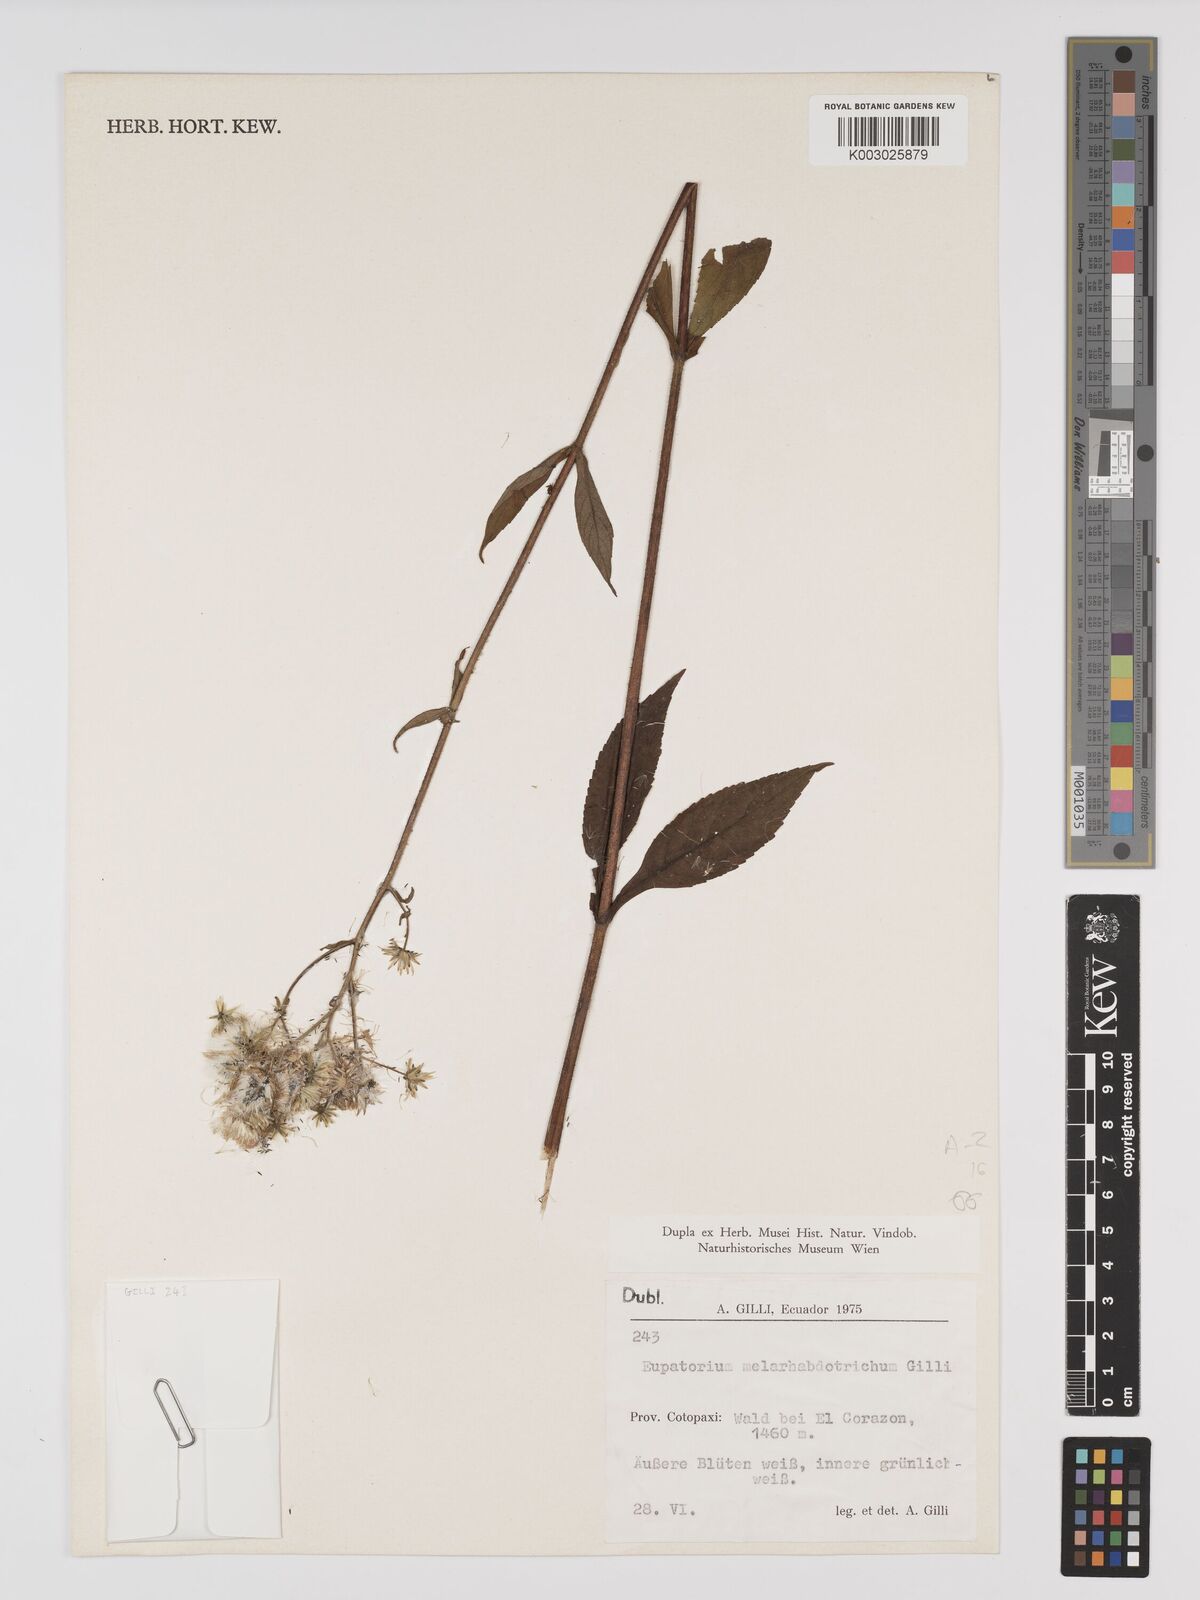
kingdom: Plantae
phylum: Tracheophyta
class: Magnoliopsida
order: Asterales
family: Asteraceae
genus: Polyanthina
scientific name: Polyanthina nemorosa
